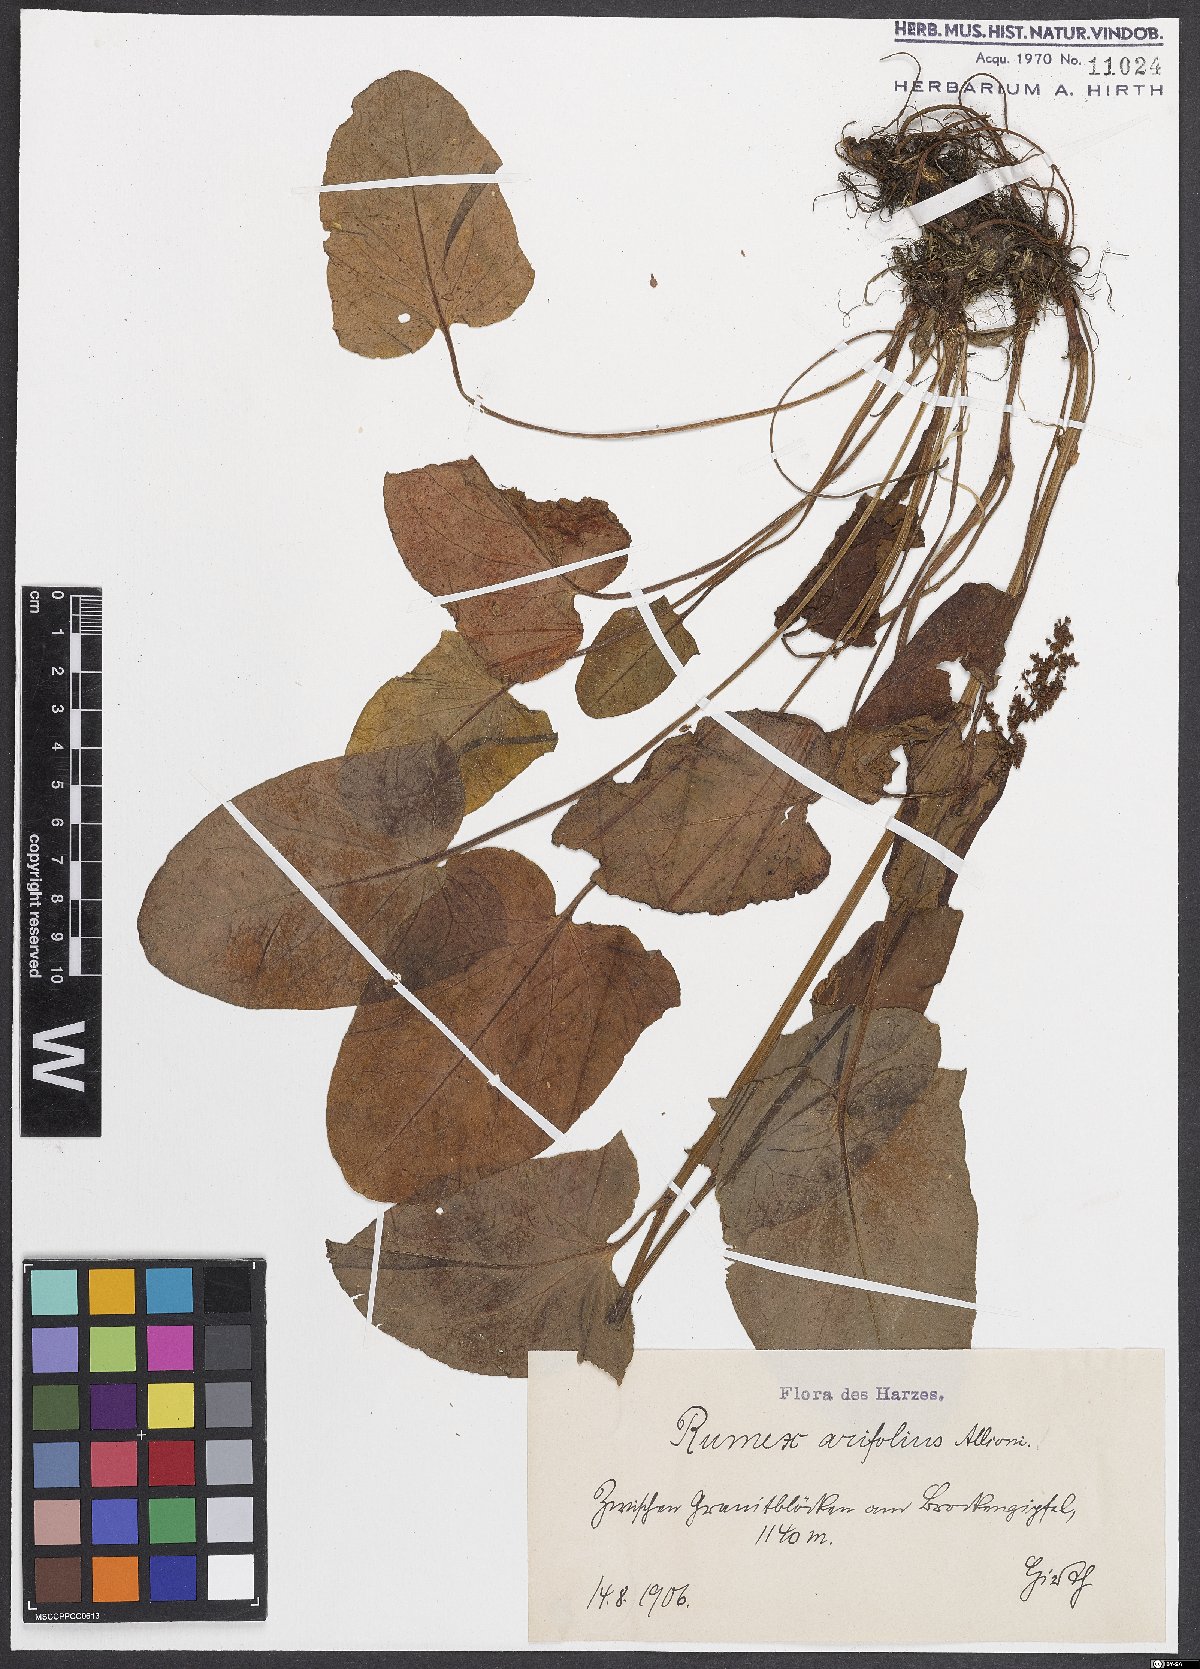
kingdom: Plantae
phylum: Tracheophyta
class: Magnoliopsida
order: Caryophyllales
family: Polygonaceae
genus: Rumex
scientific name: Rumex arifolius
